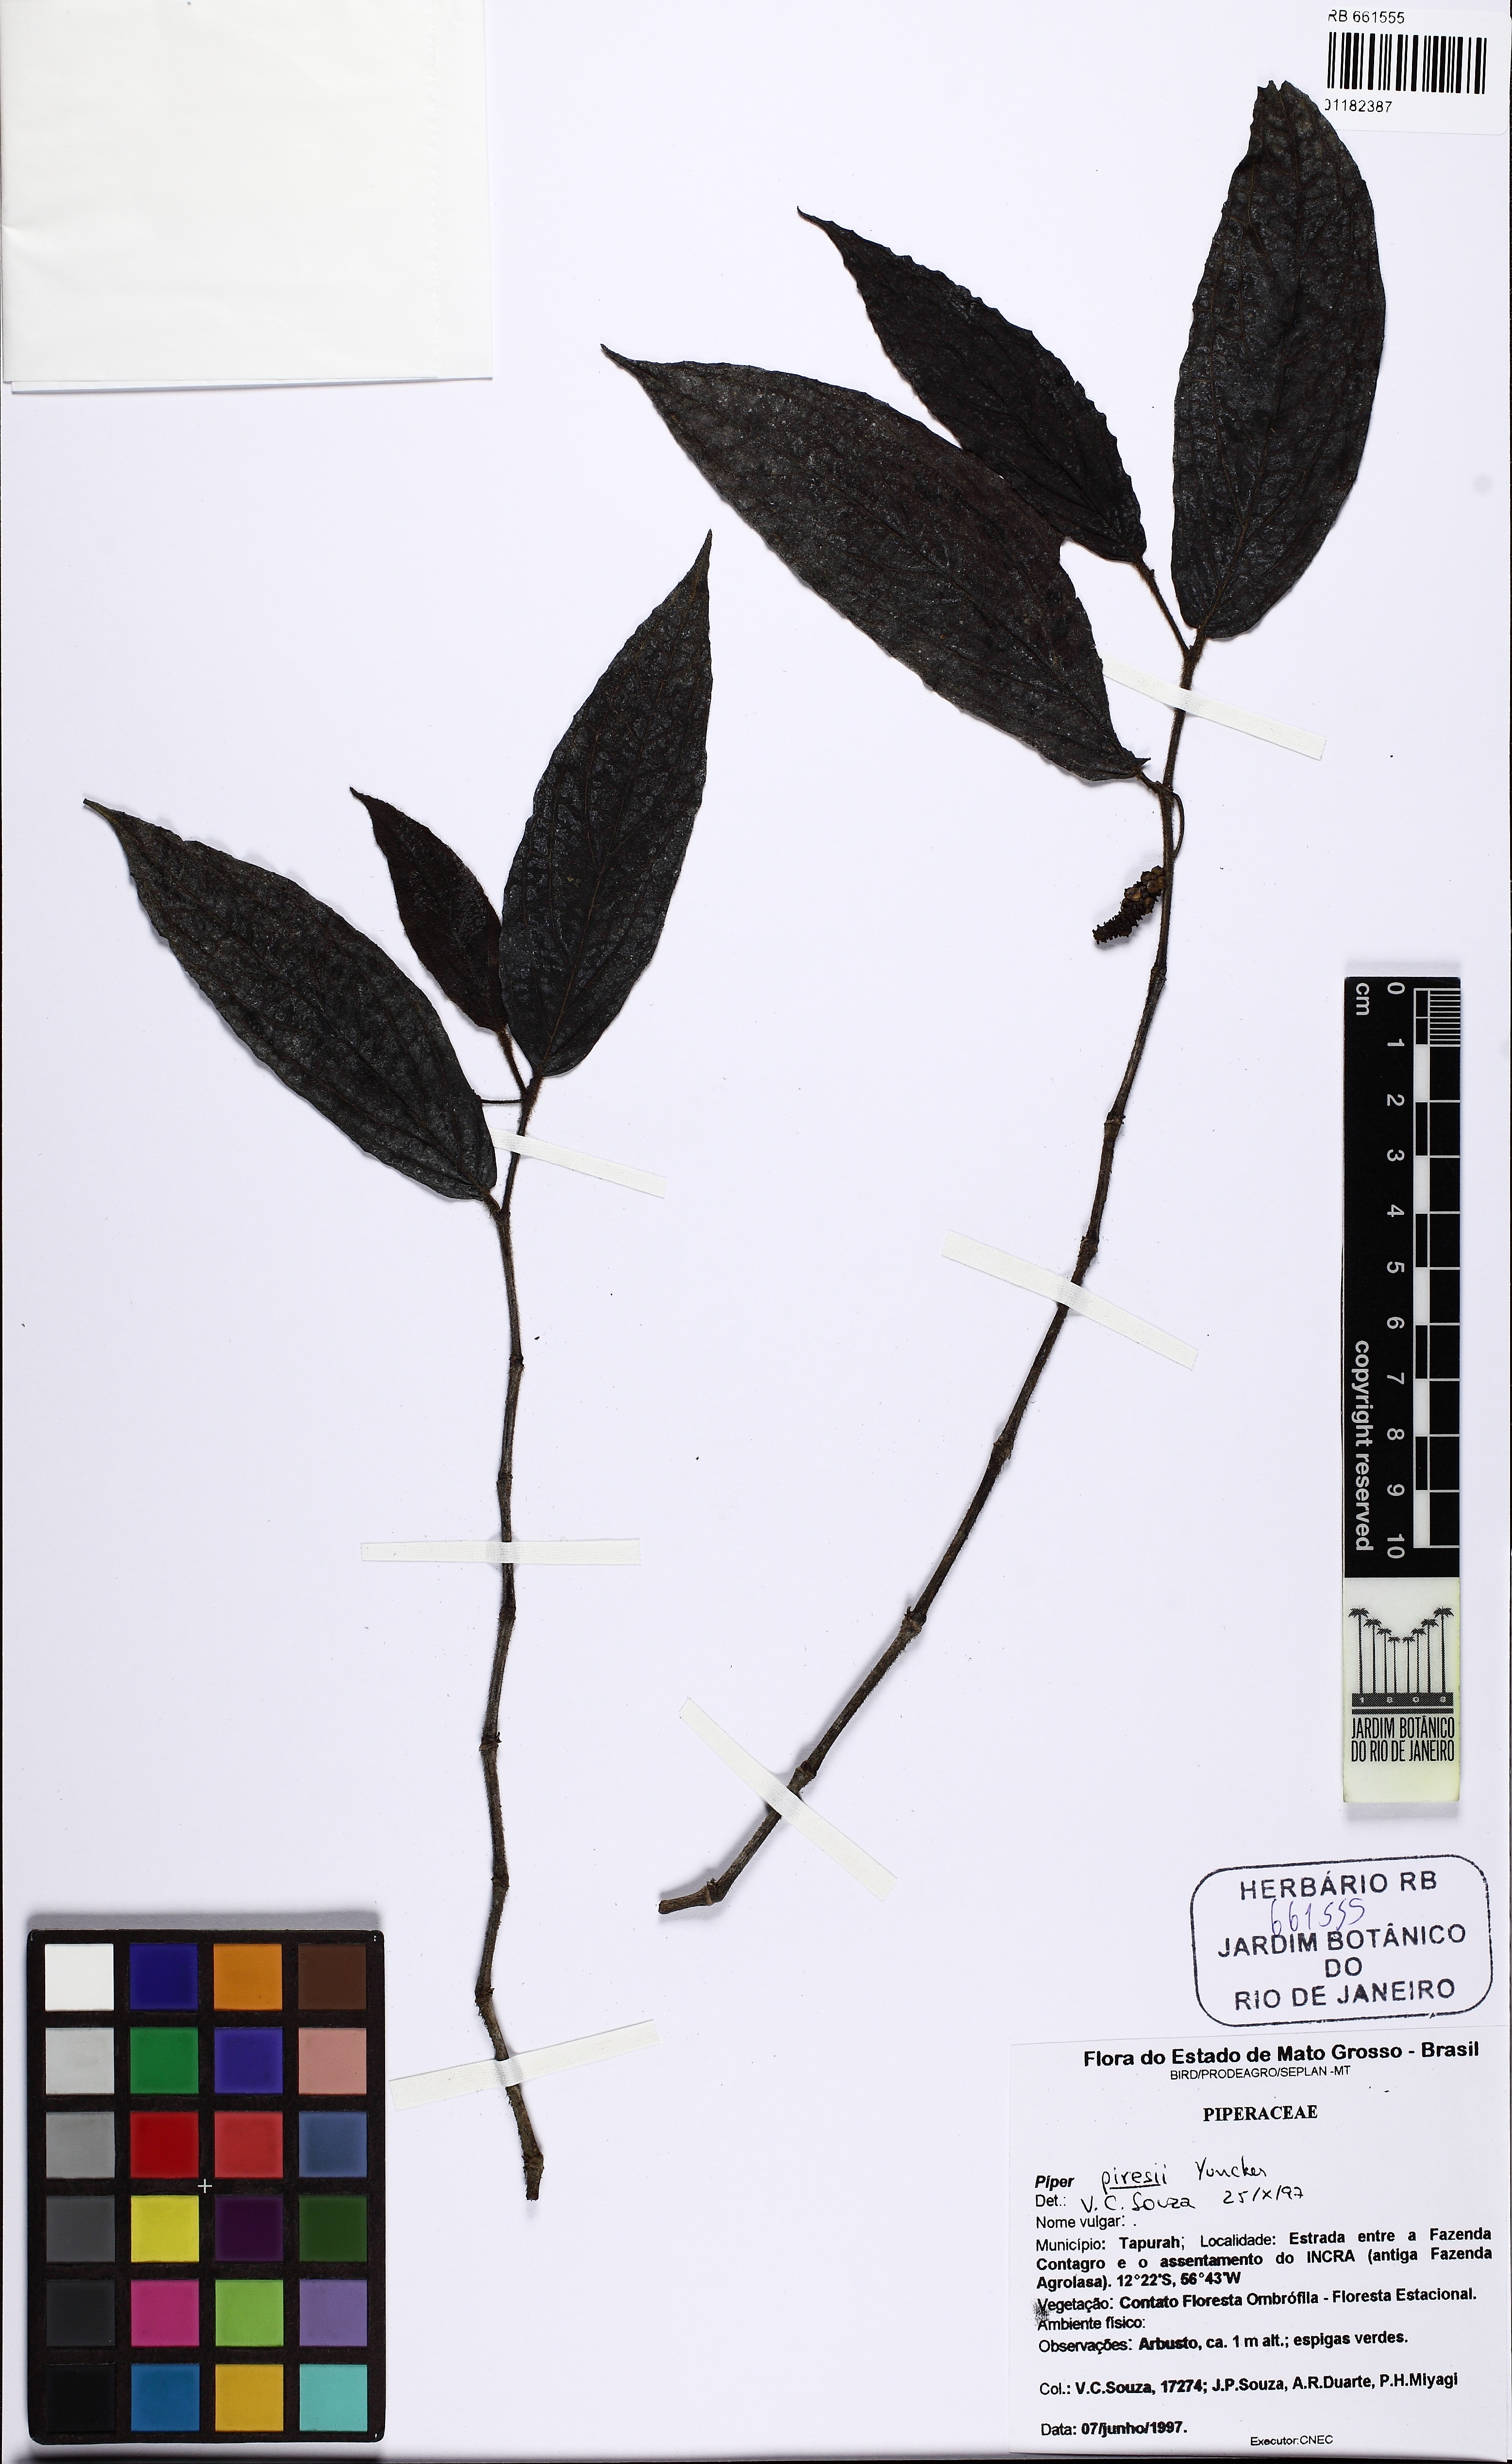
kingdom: Plantae
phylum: Tracheophyta
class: Magnoliopsida
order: Piperales
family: Piperaceae
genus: Piper
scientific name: Piper piresii
